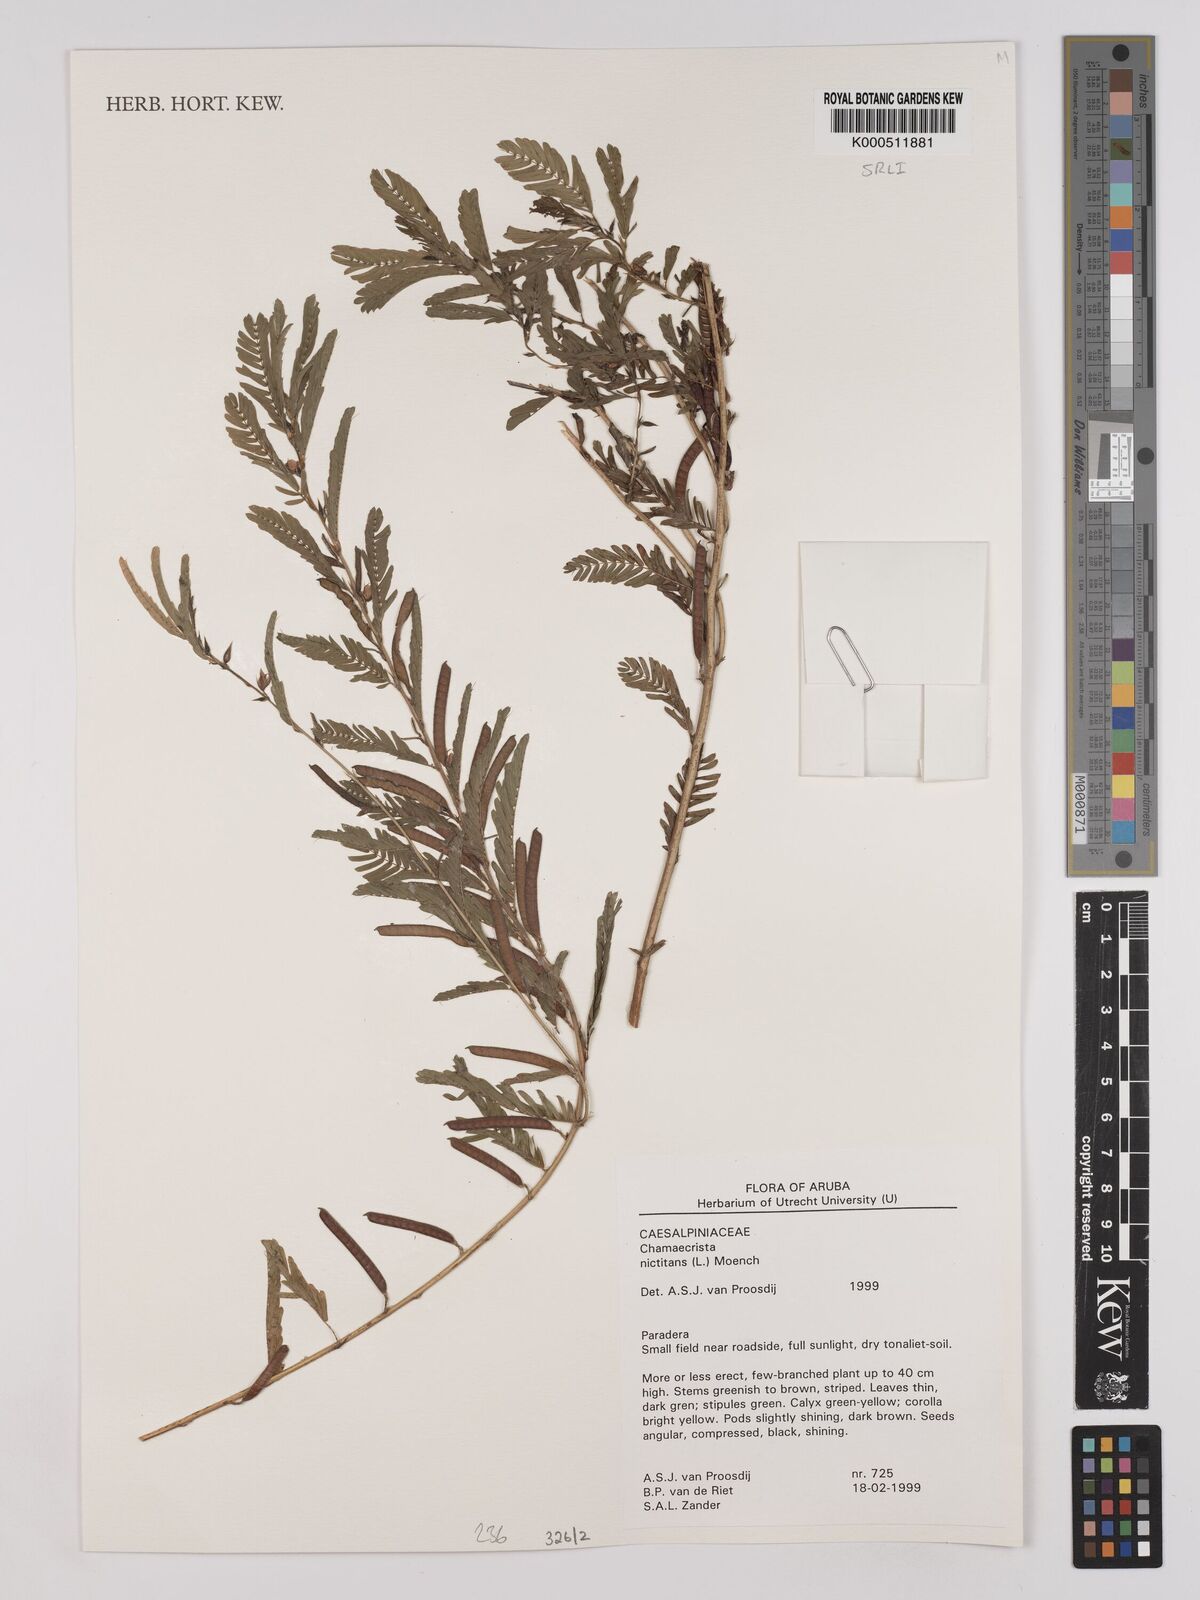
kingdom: Plantae
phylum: Tracheophyta
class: Magnoliopsida
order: Fabales
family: Fabaceae
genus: Chamaecrista
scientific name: Chamaecrista nictitans
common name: Sensitive cassia
